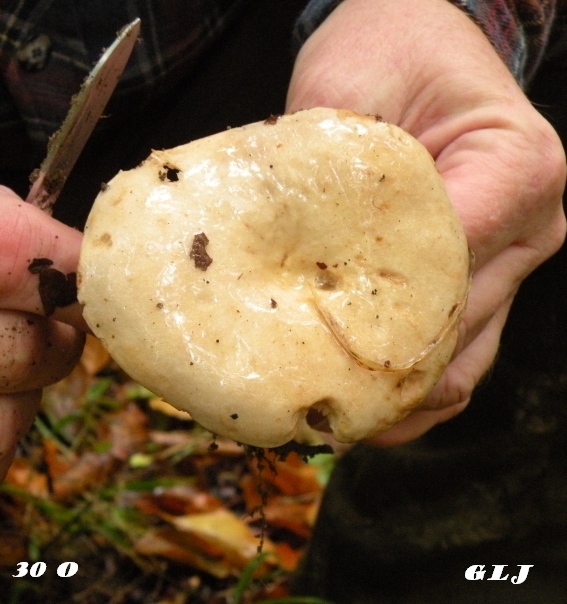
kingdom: Fungi
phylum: Basidiomycota
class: Agaricomycetes
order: Russulales
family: Russulaceae
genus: Lactarius
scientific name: Lactarius pubescens
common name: dunet mælkehat
